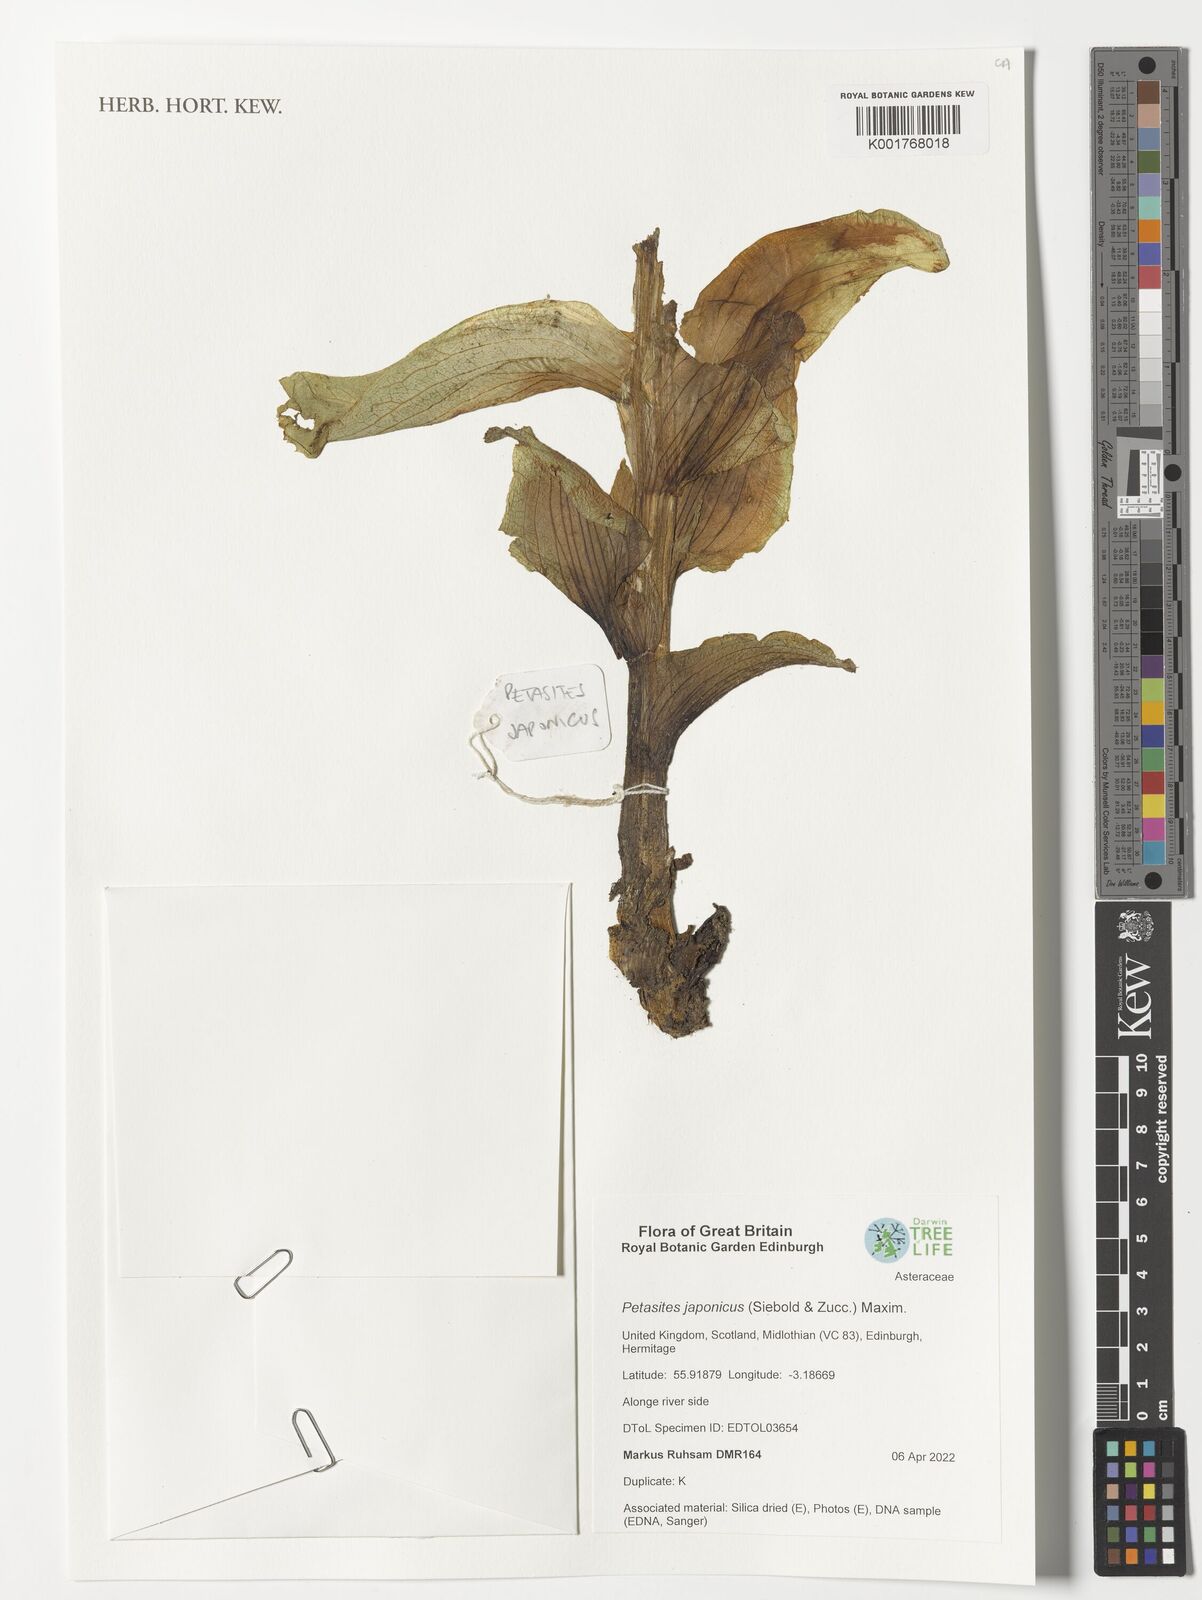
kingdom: Plantae
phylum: Tracheophyta
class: Magnoliopsida
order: Asterales
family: Asteraceae
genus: Petasites
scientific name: Petasites japonicus
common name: Giant butterbur
